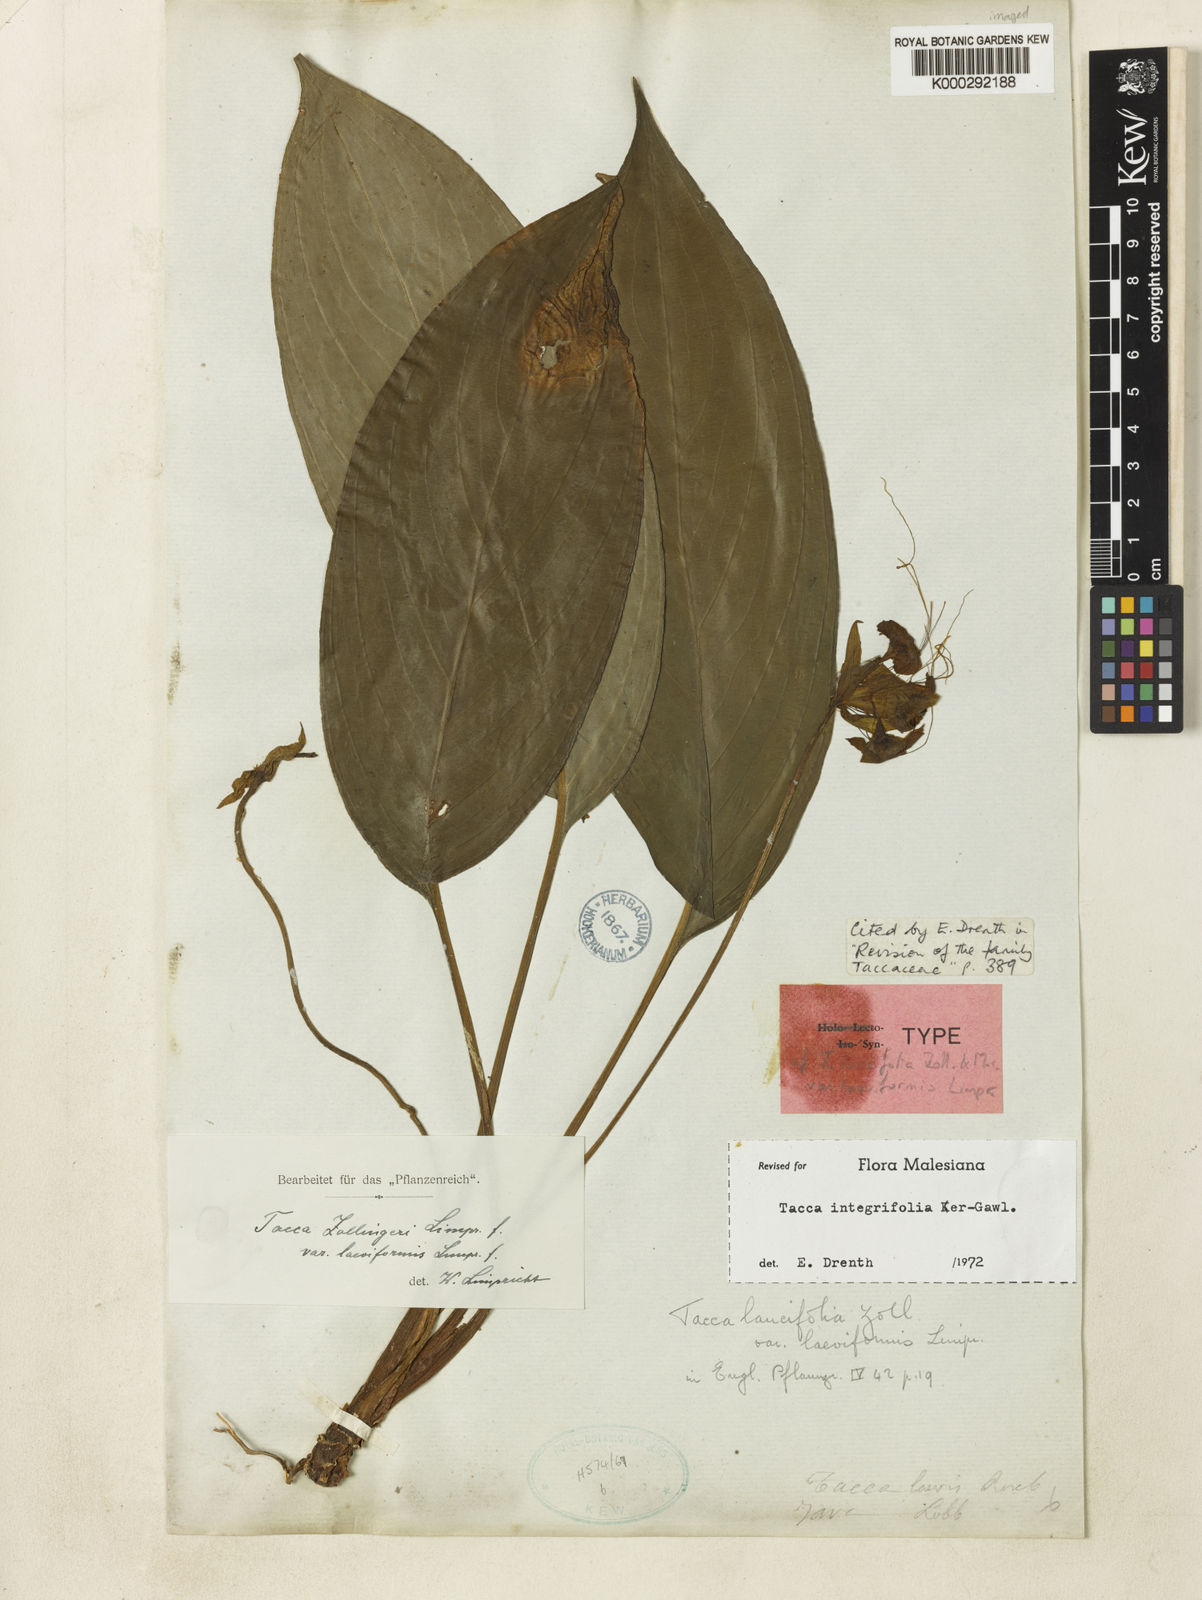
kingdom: Plantae
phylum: Tracheophyta
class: Liliopsida
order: Dioscoreales
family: Dioscoreaceae
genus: Tacca
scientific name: Tacca integrifolia
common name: Batplant
